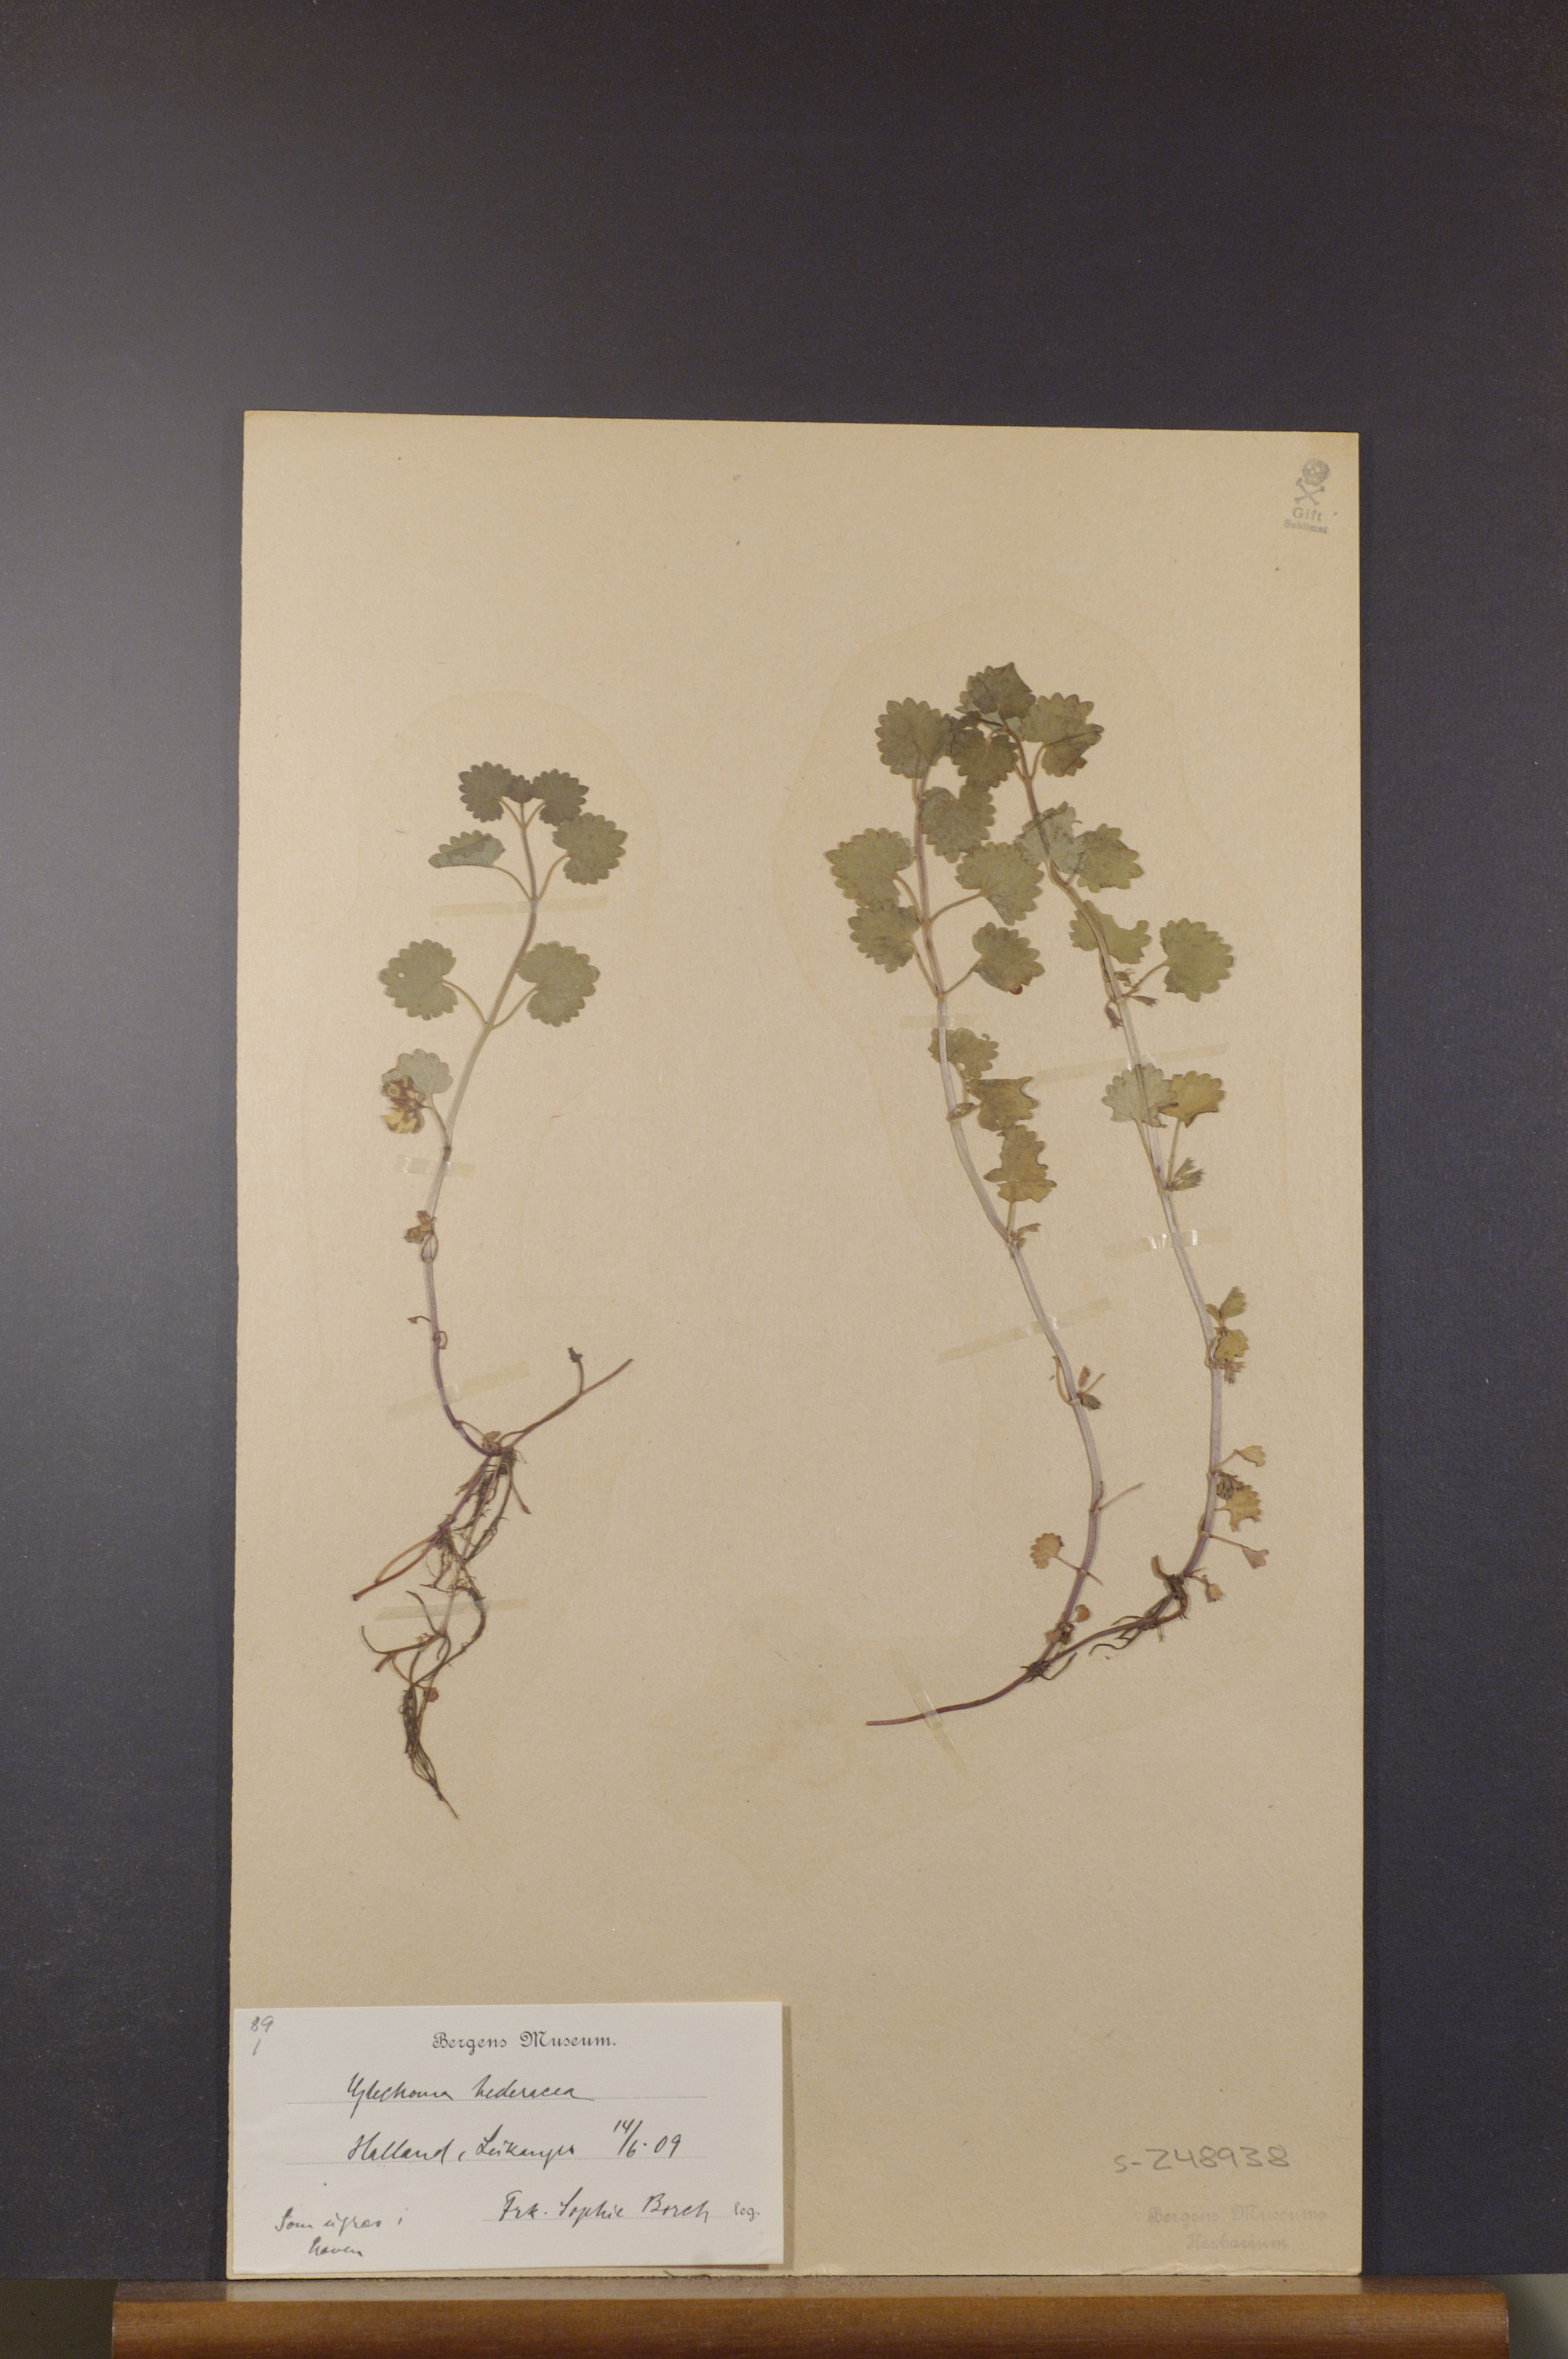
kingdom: Plantae
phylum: Tracheophyta
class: Magnoliopsida
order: Lamiales
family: Lamiaceae
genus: Glechoma
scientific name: Glechoma hederacea
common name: Ground ivy
